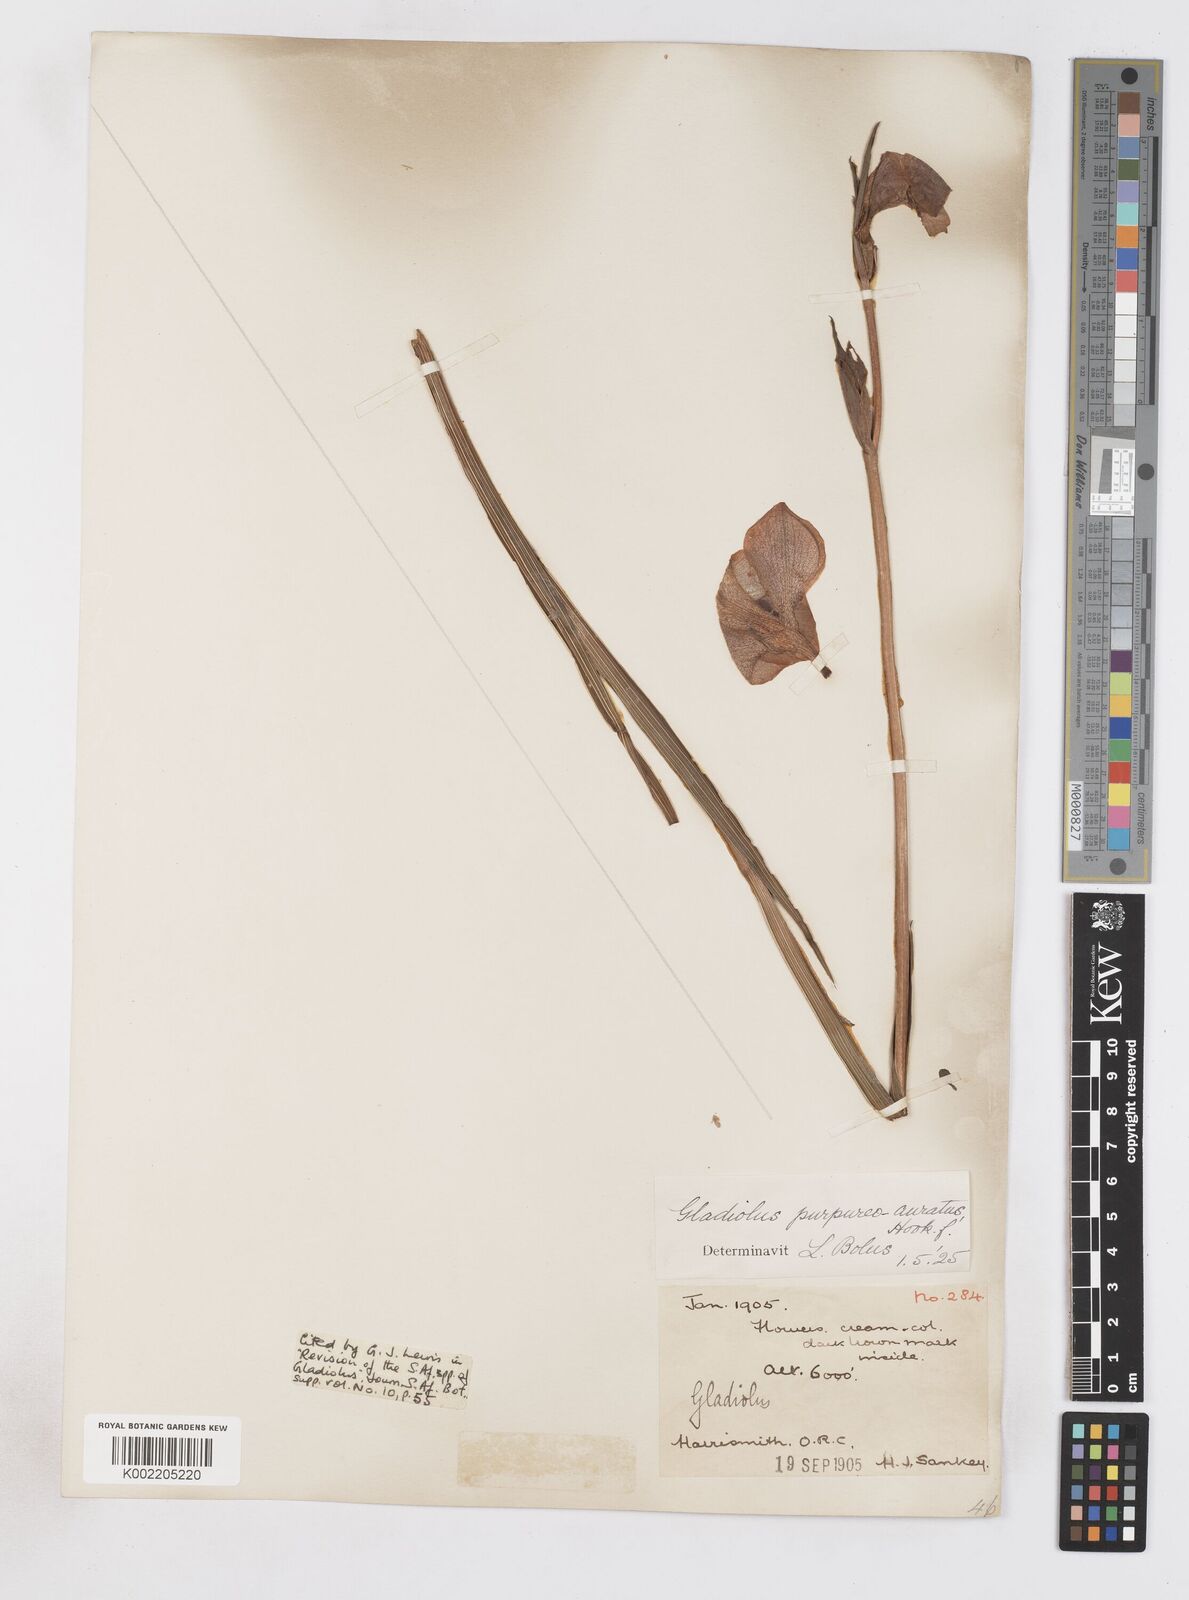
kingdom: Plantae
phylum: Tracheophyta
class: Liliopsida
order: Asparagales
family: Iridaceae
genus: Gladiolus
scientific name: Gladiolus papilio
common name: Goldblotch gladiolus
